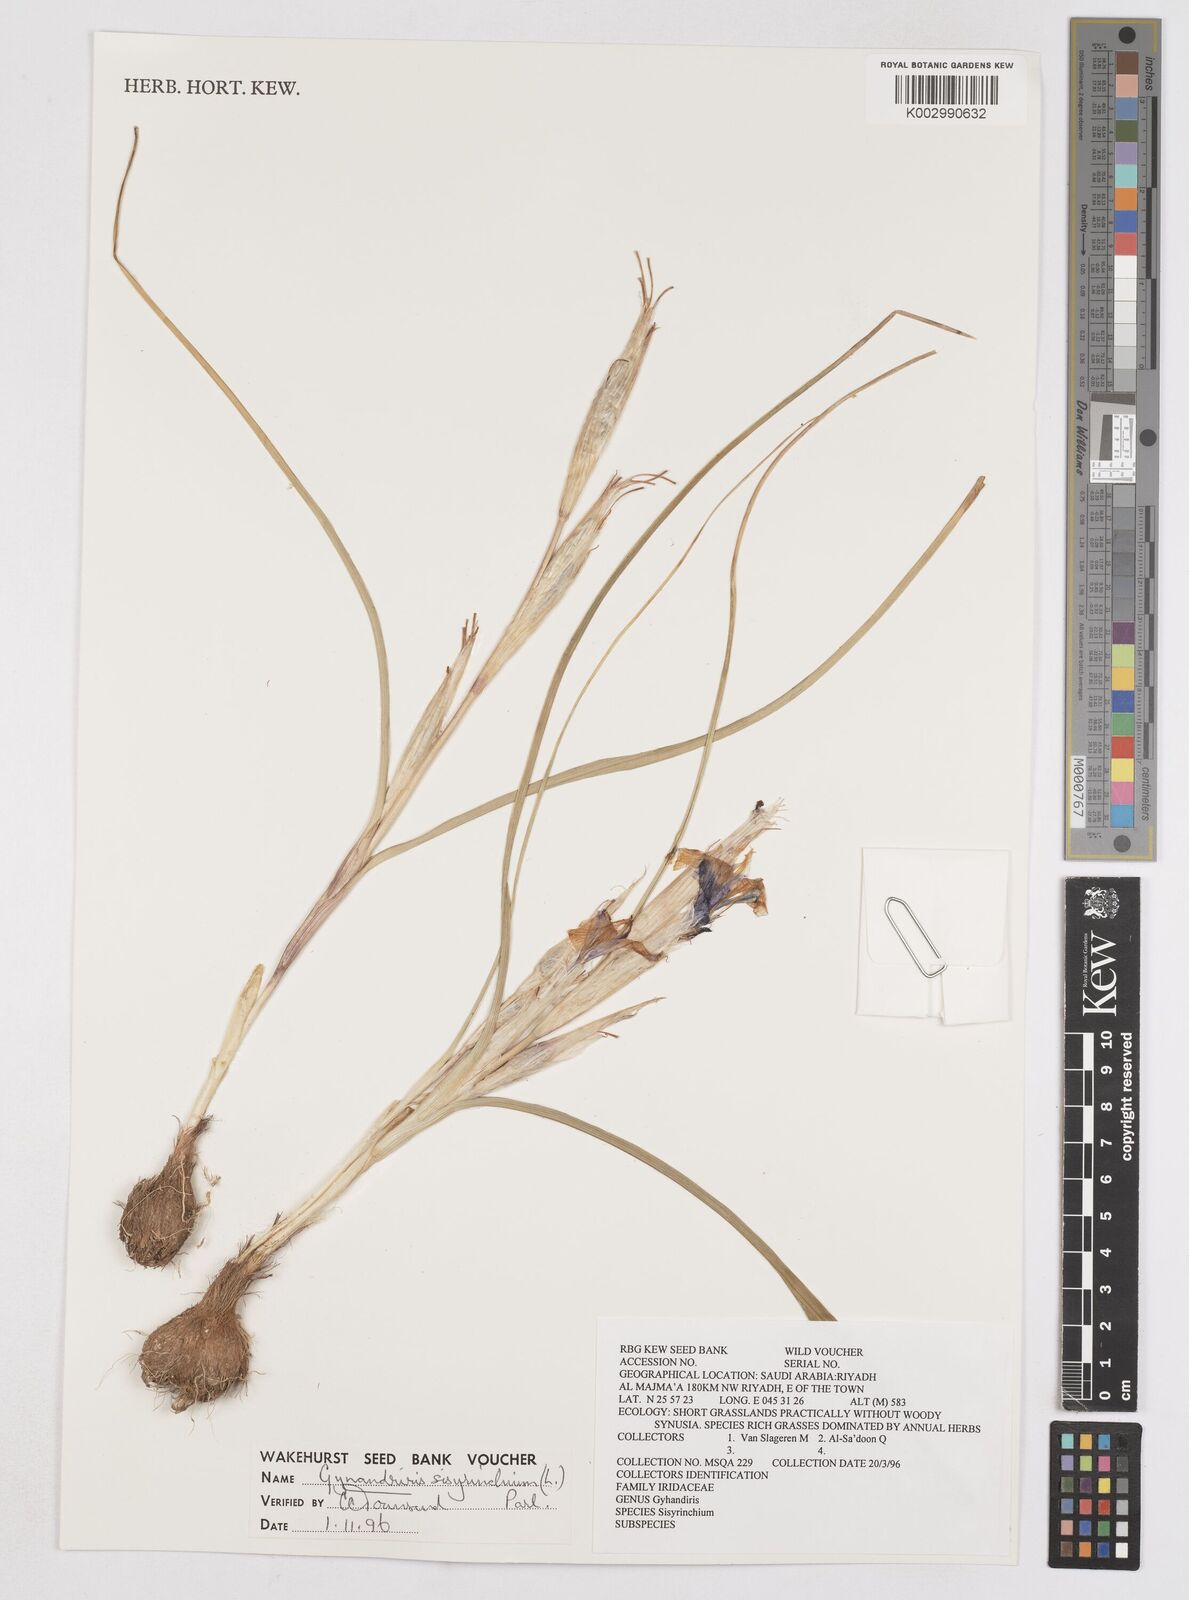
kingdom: Plantae
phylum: Tracheophyta
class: Liliopsida
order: Asparagales
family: Iridaceae
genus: Moraea
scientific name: Moraea sisyrinchium
